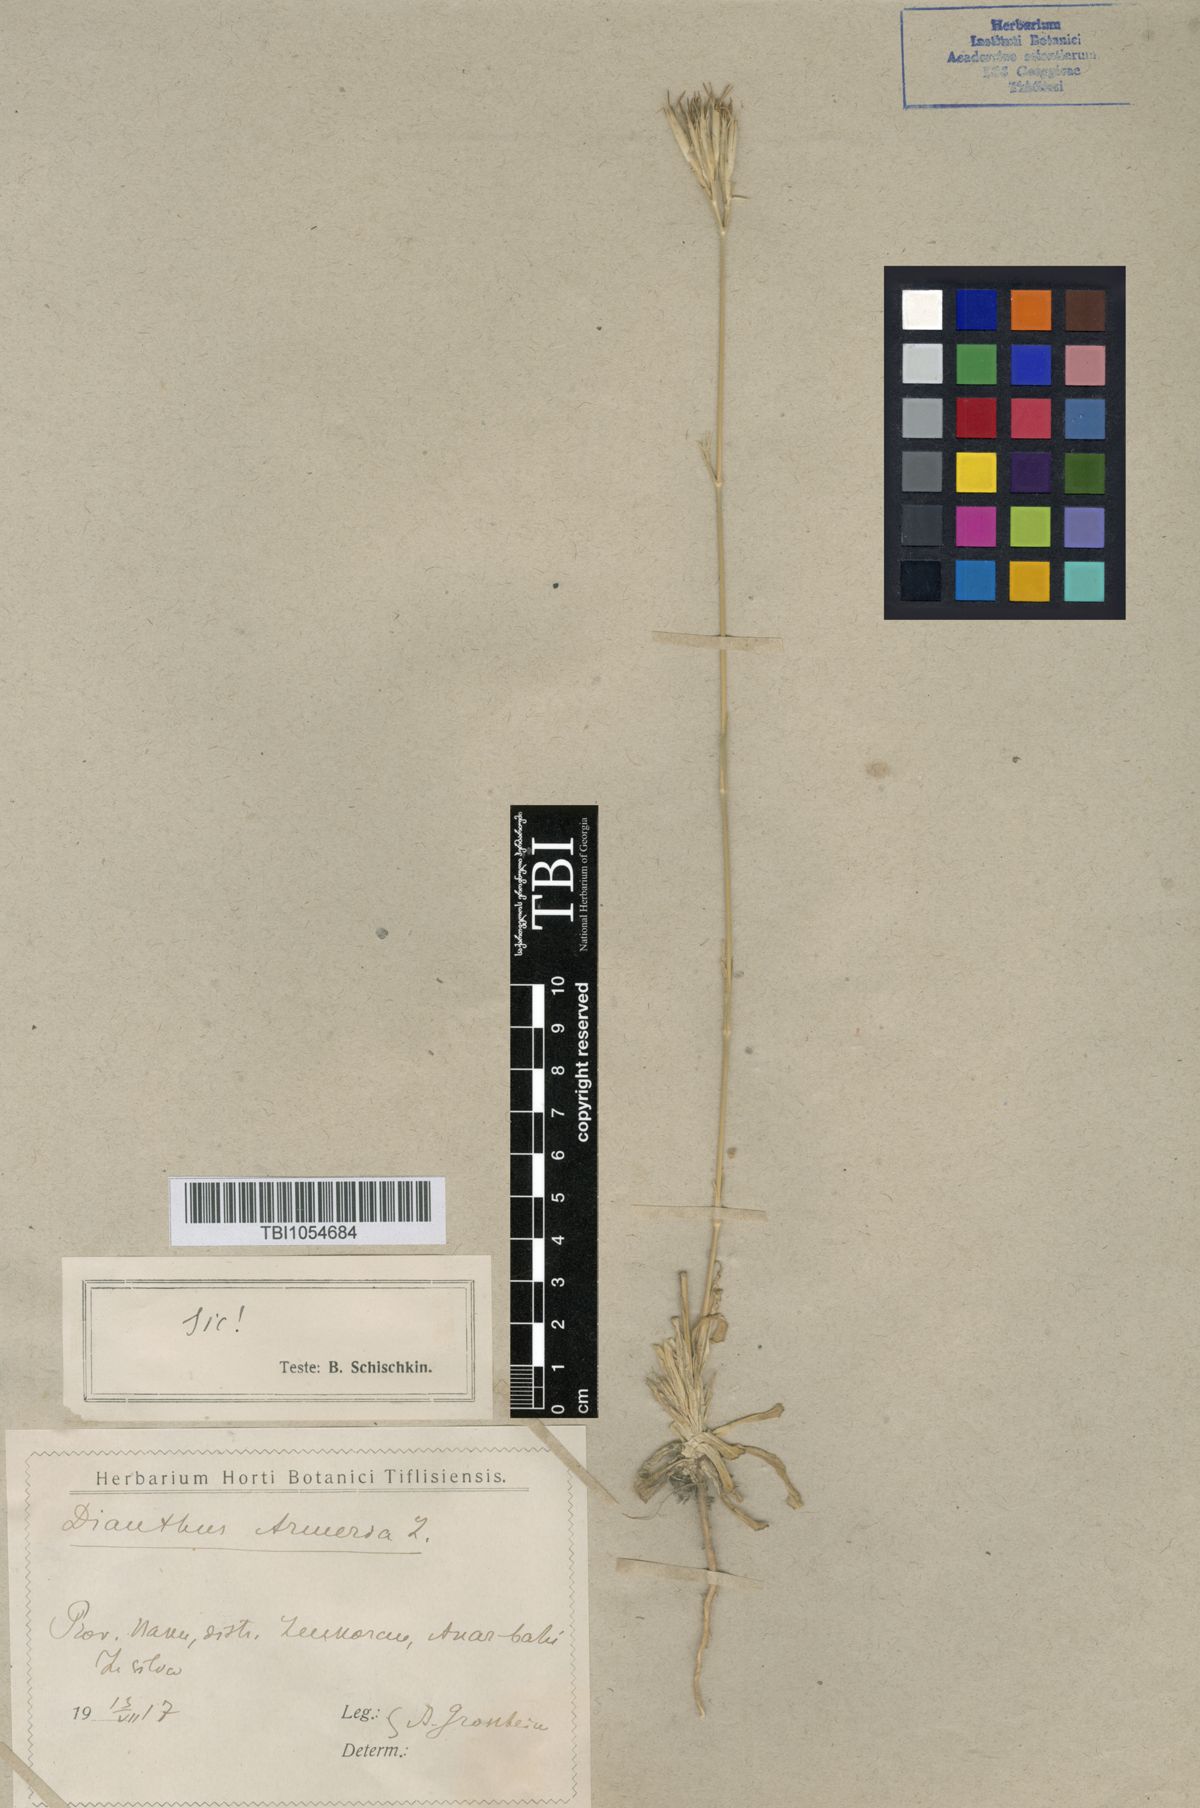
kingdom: Plantae
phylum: Tracheophyta
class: Magnoliopsida
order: Caryophyllales
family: Caryophyllaceae
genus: Dianthus
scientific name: Dianthus armeria
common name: Deptford pink
